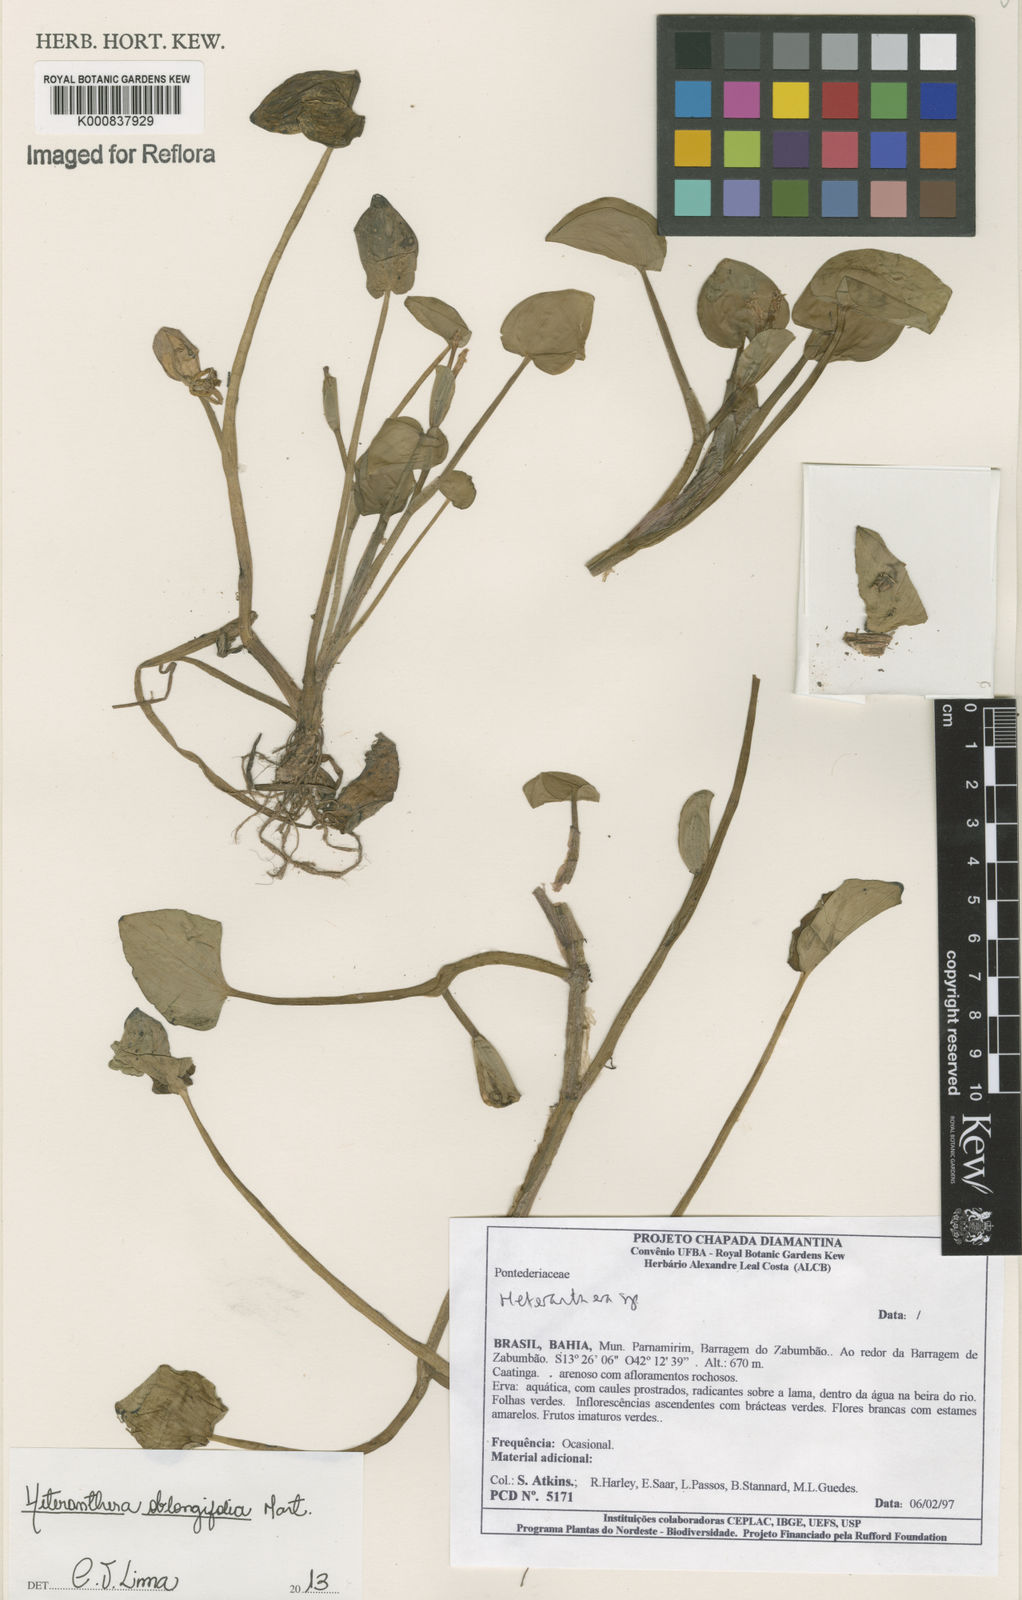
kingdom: Plantae
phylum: Tracheophyta
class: Liliopsida
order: Commelinales
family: Pontederiaceae
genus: Heteranthera
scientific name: Heteranthera oblongifolia
